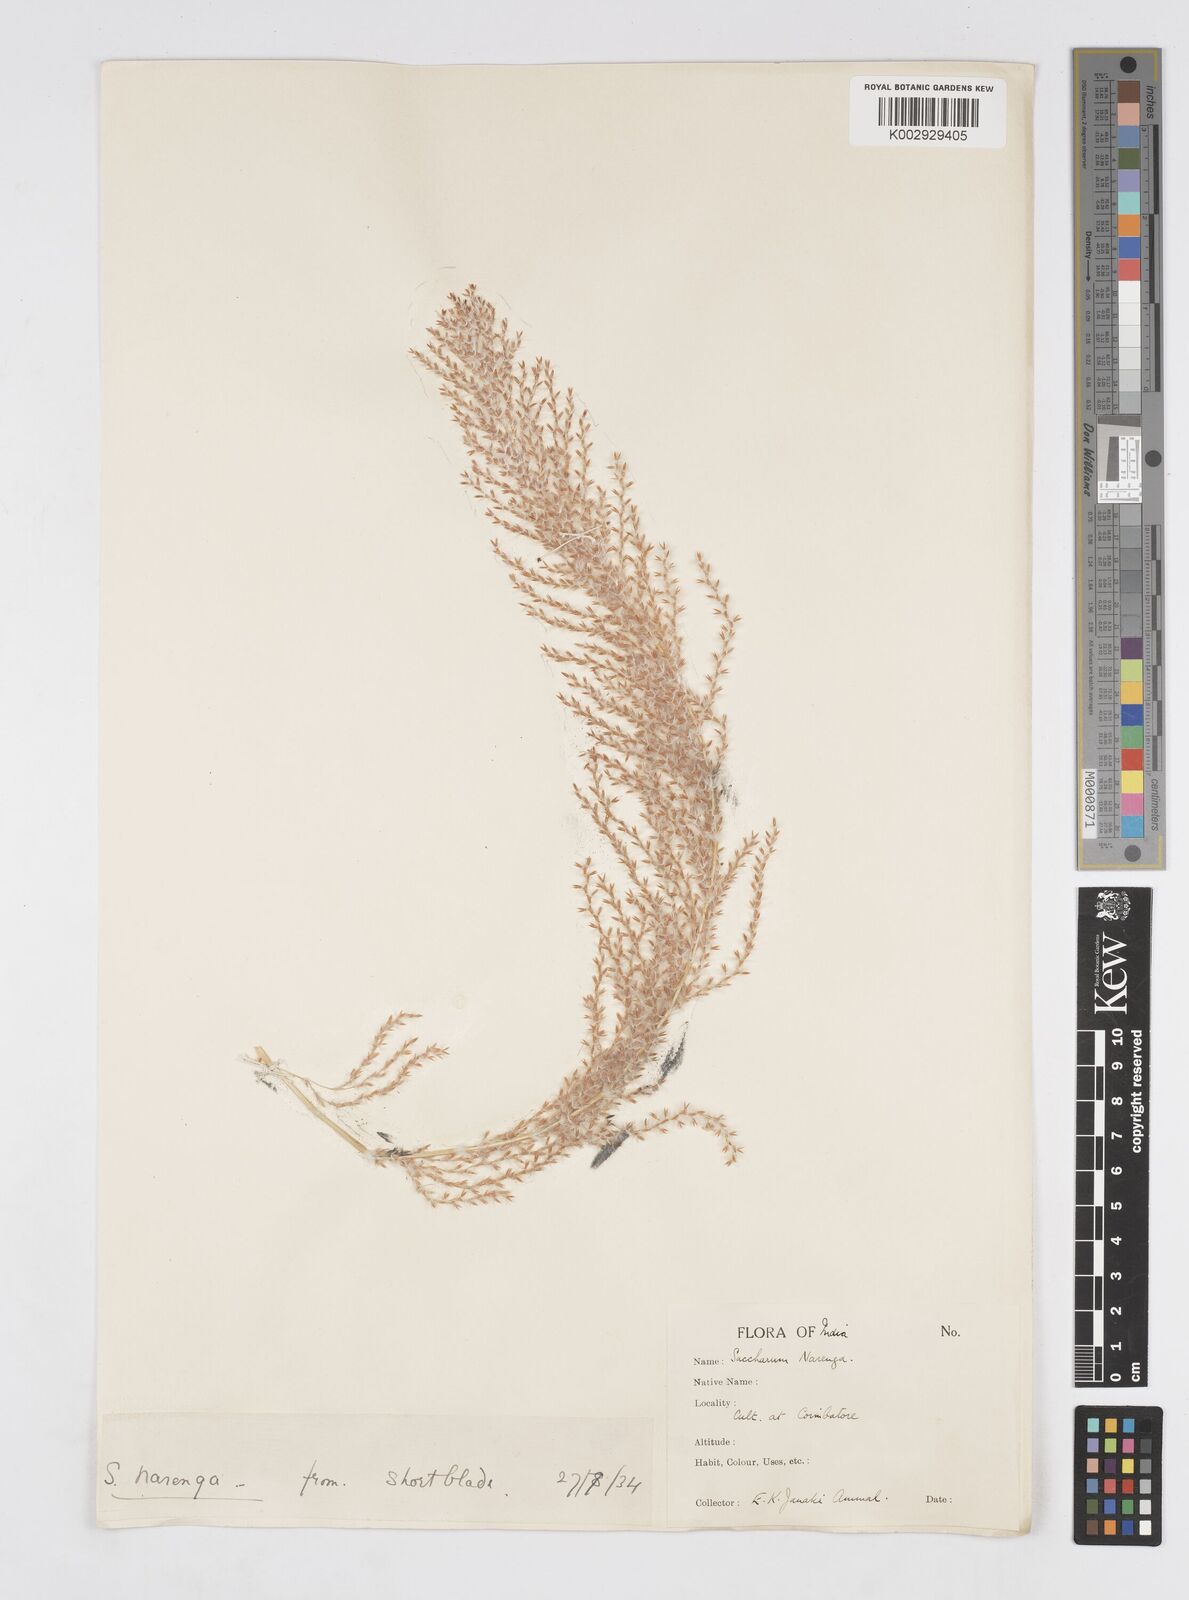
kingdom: Plantae
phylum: Tracheophyta
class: Liliopsida
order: Poales
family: Poaceae
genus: Narenga
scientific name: Narenga porphyrocoma
